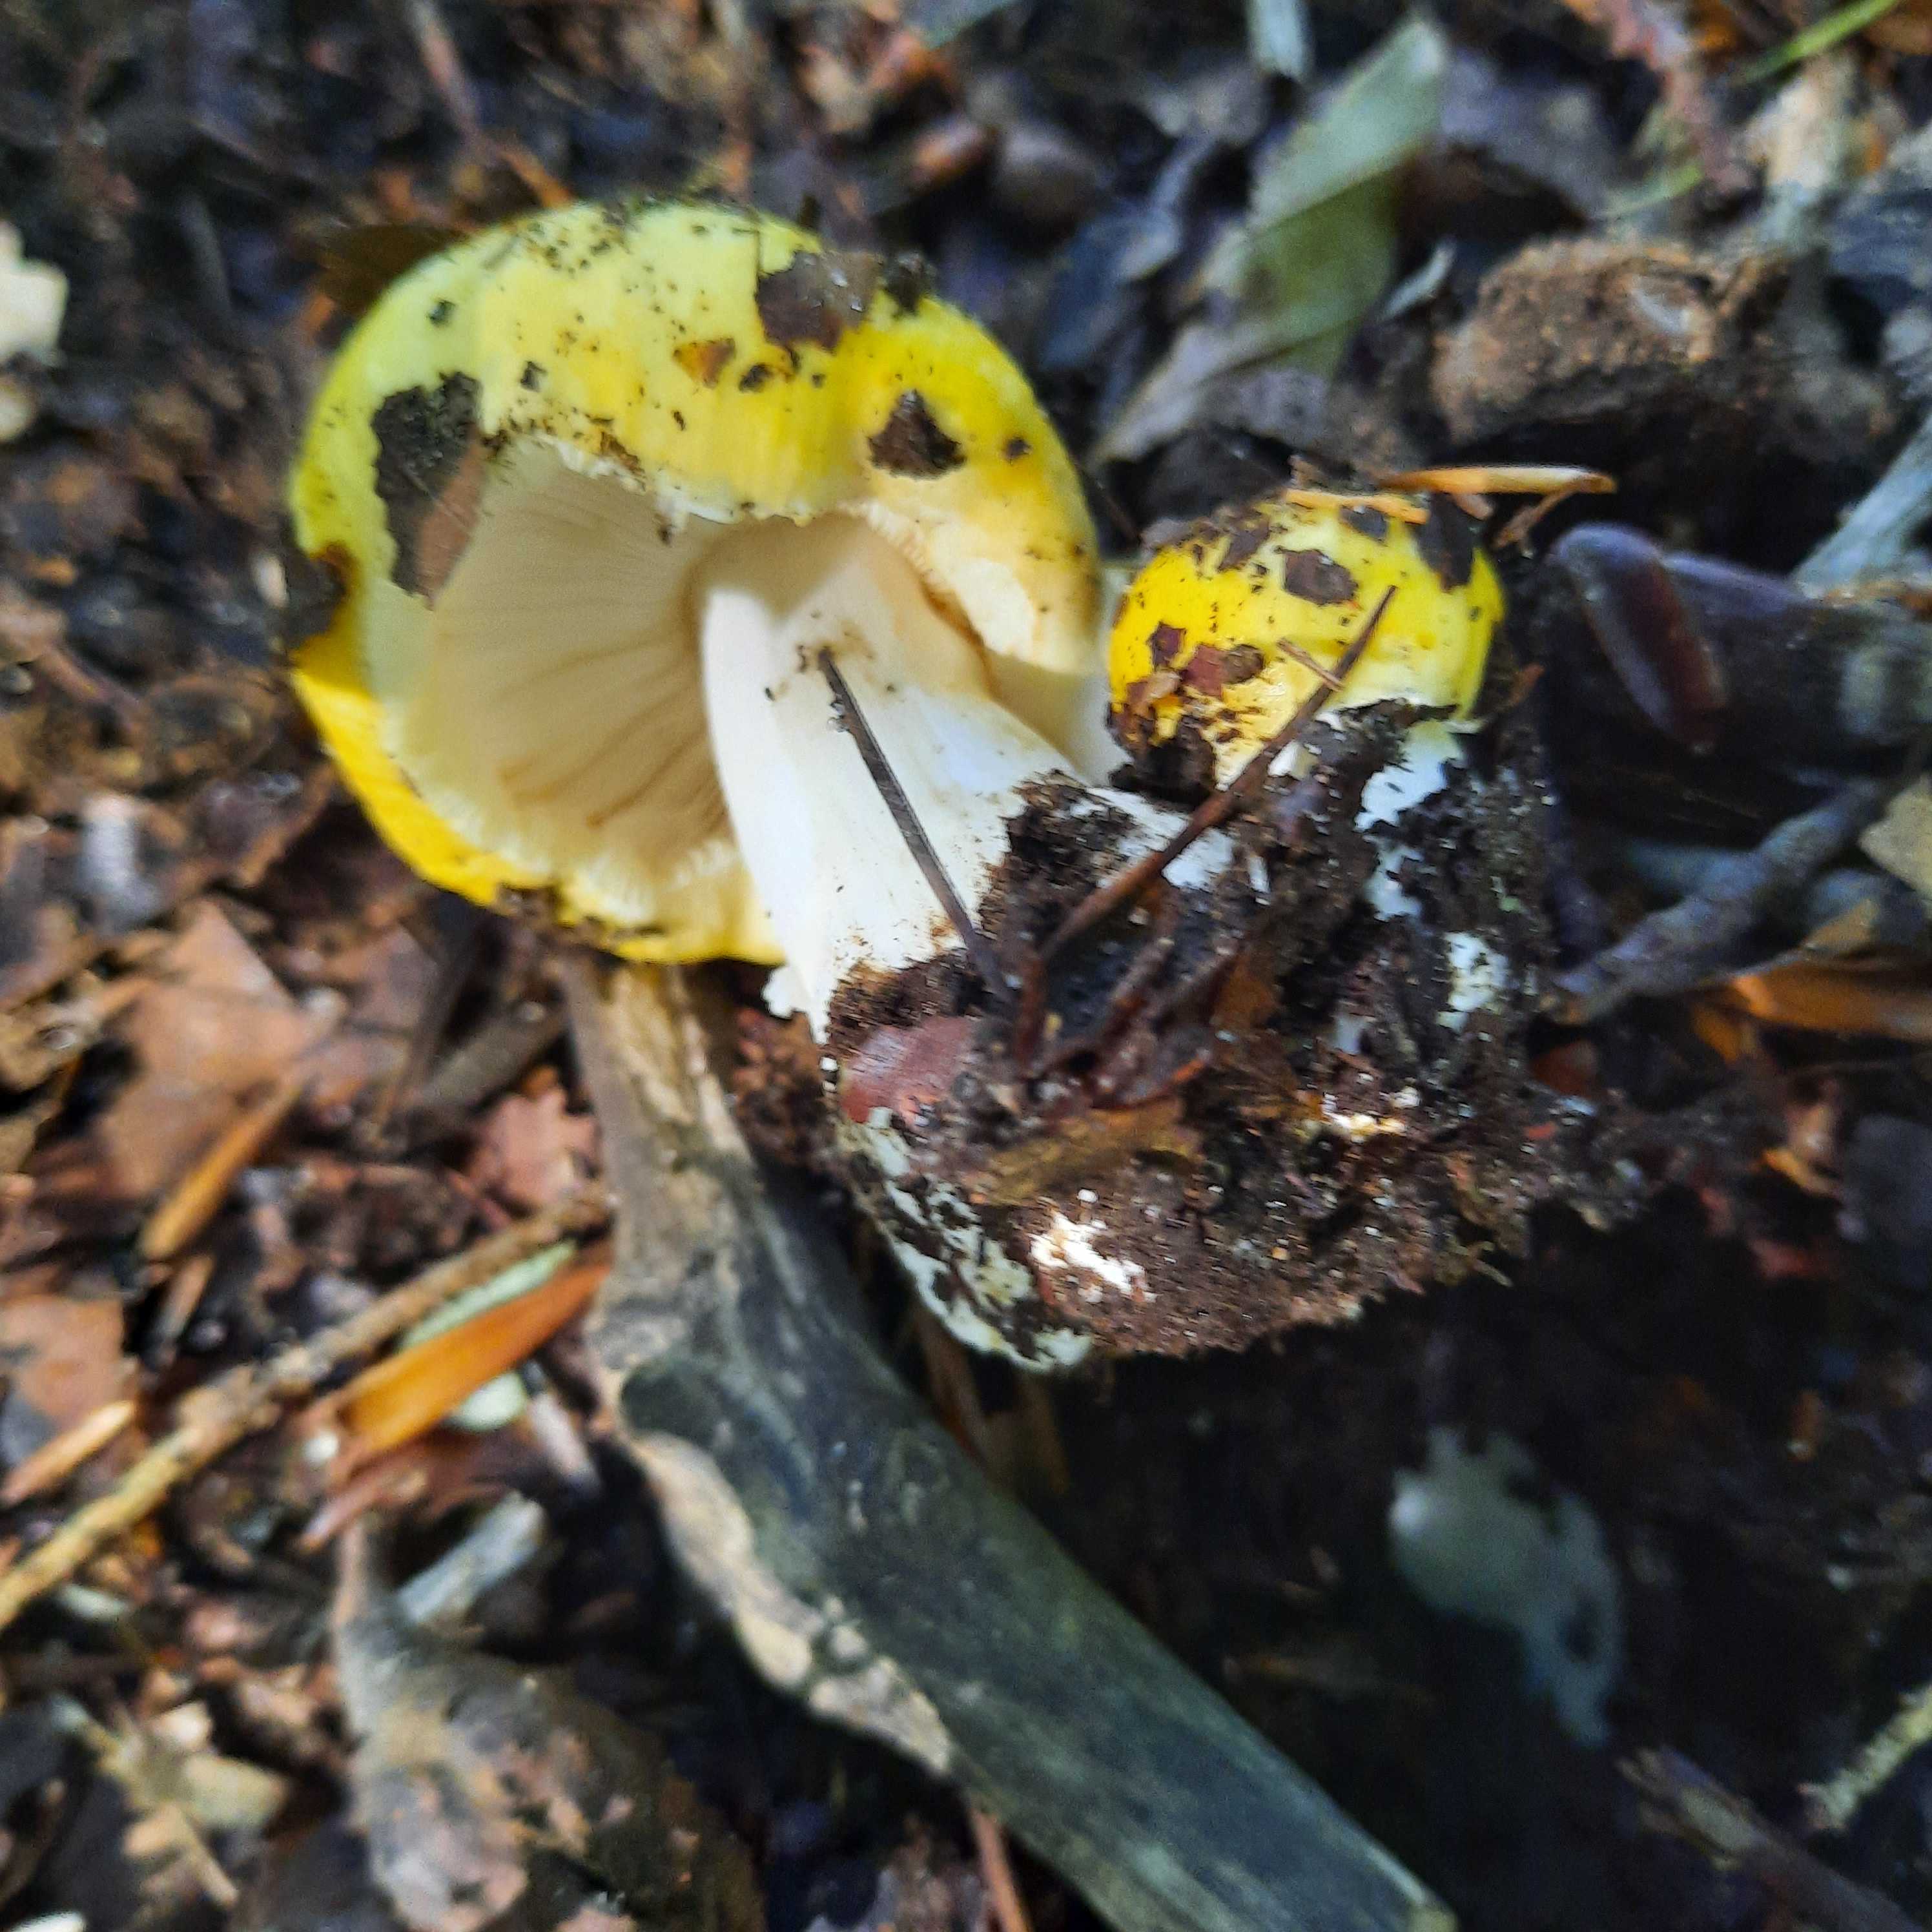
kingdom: Fungi
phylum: Basidiomycota
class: Agaricomycetes
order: Russulales
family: Russulaceae
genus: Russula
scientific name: Russula ochroleuca
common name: okkergul skørhat
